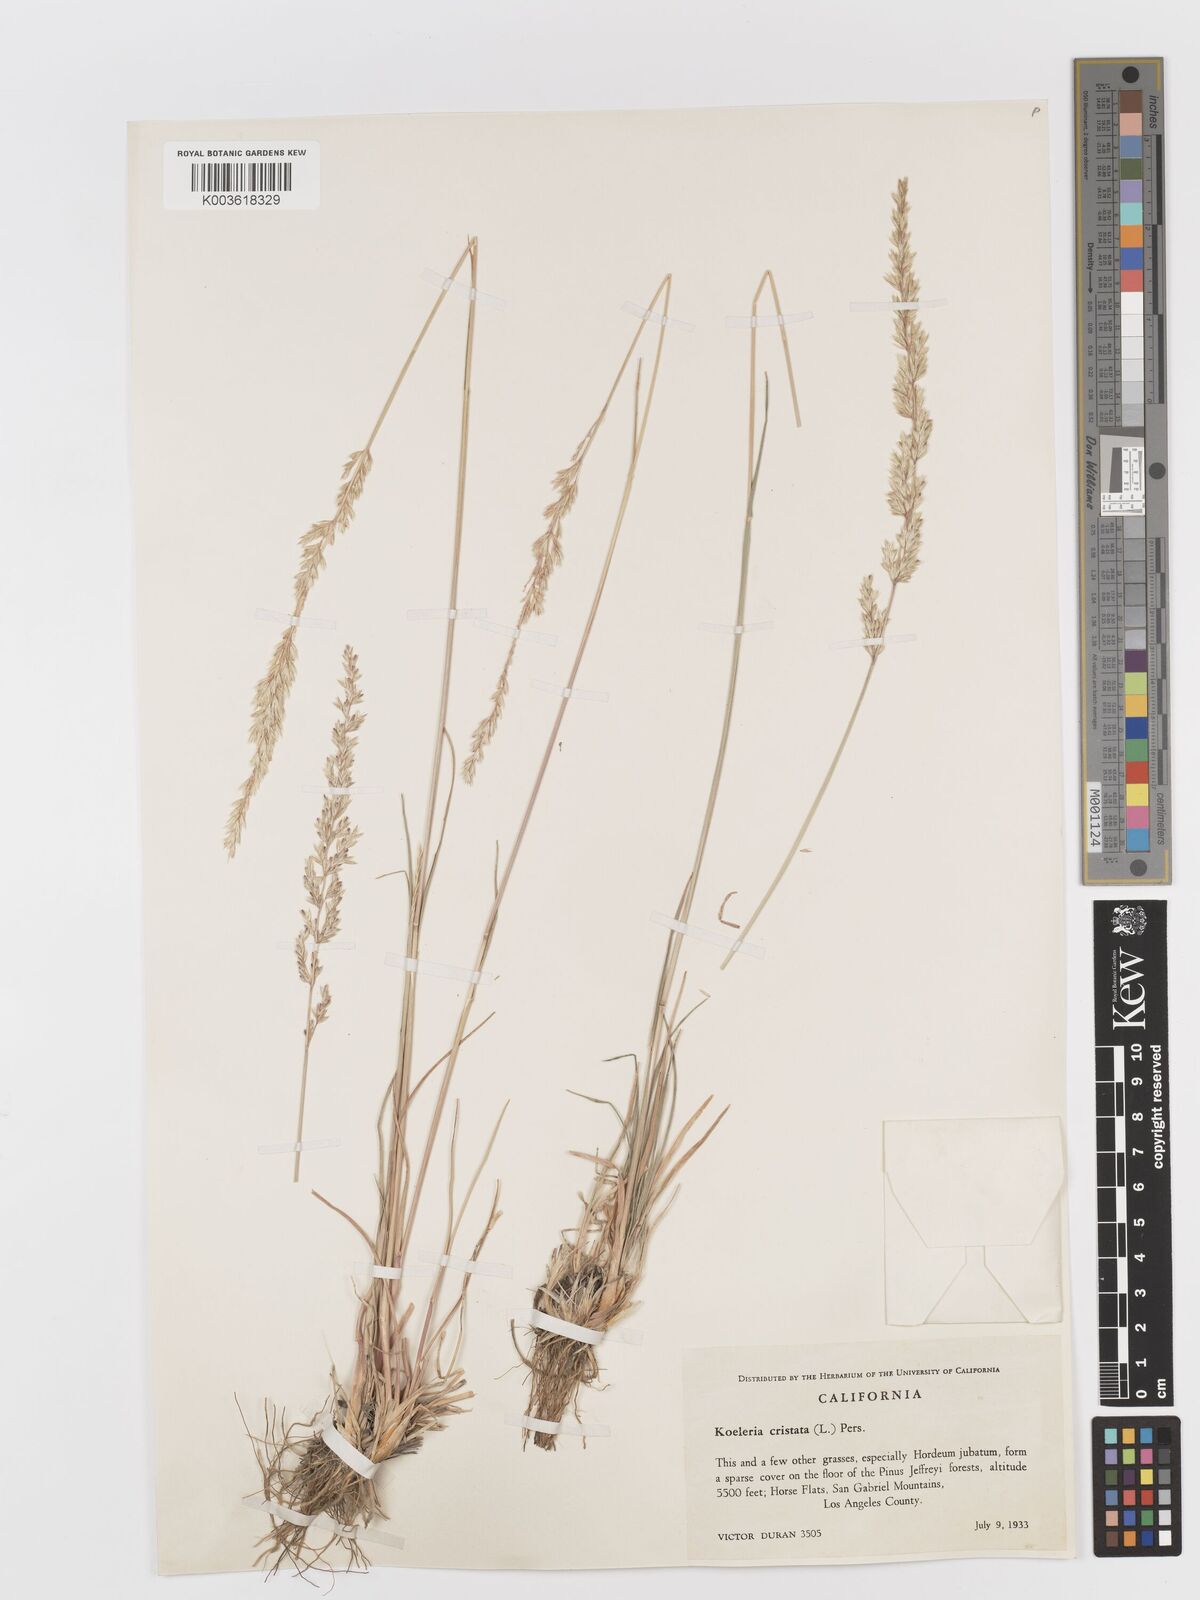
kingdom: Plantae
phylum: Tracheophyta
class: Liliopsida
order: Poales
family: Poaceae
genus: Koeleria
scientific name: Koeleria
